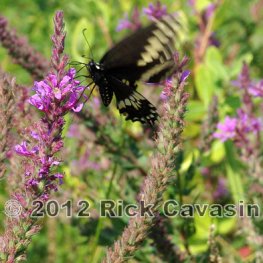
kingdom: Animalia
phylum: Arthropoda
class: Insecta
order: Lepidoptera
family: Papilionidae
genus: Papilio
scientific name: Papilio polyxenes
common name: Black Swallowtail
